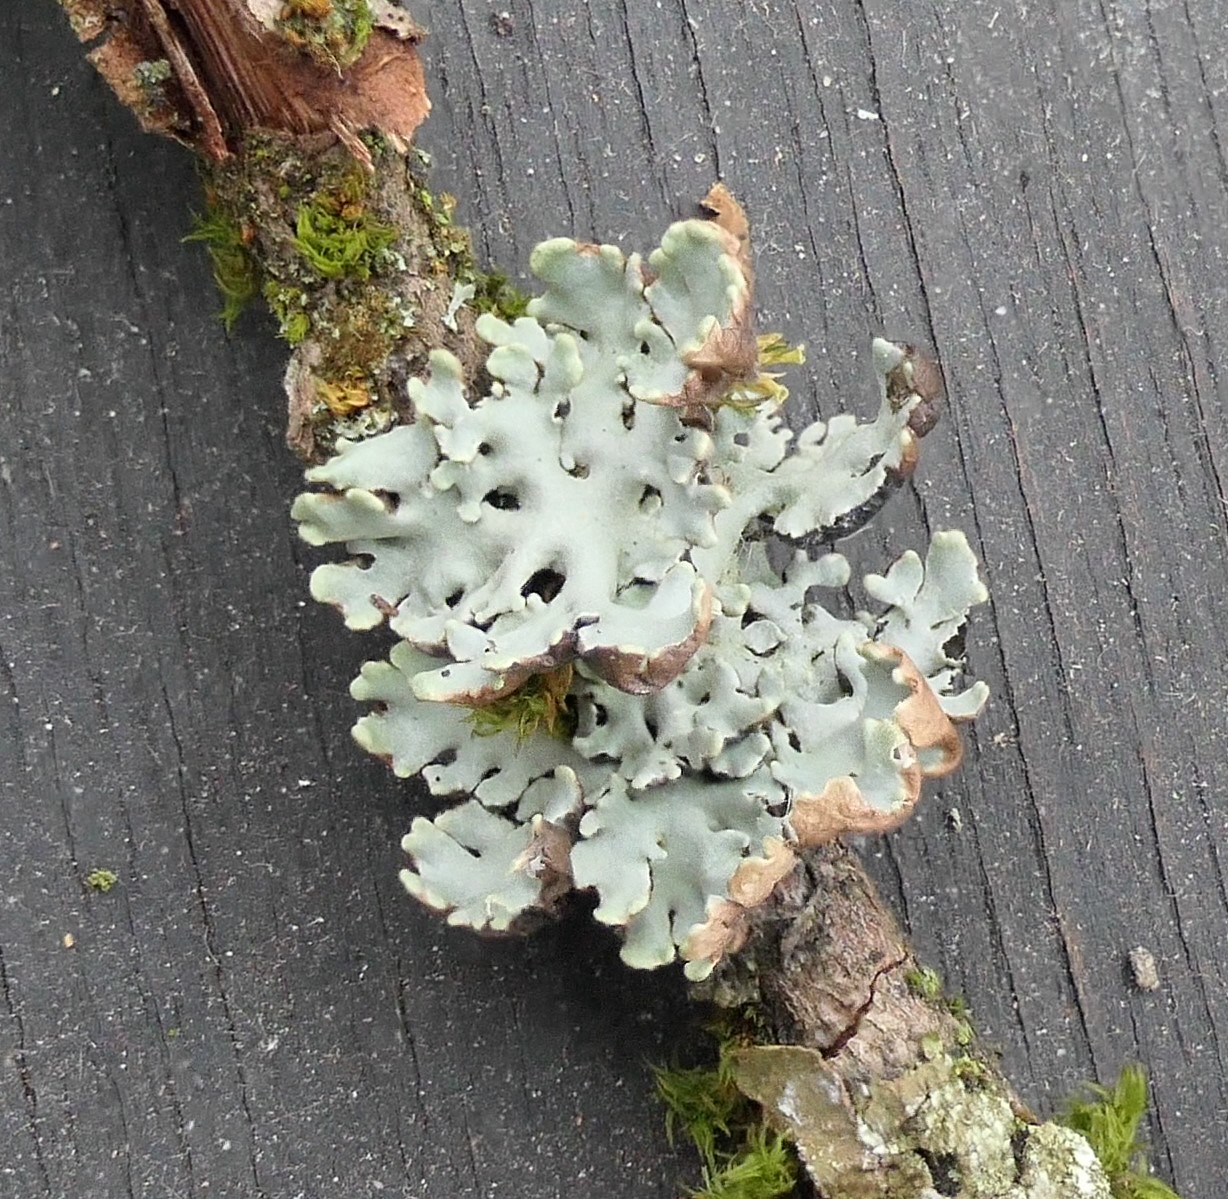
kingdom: Fungi
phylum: Ascomycota
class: Lecanoromycetes
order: Lecanorales
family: Parmeliaceae
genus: Hypogymnia
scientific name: Hypogymnia physodes
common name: almindelig kvistlav
